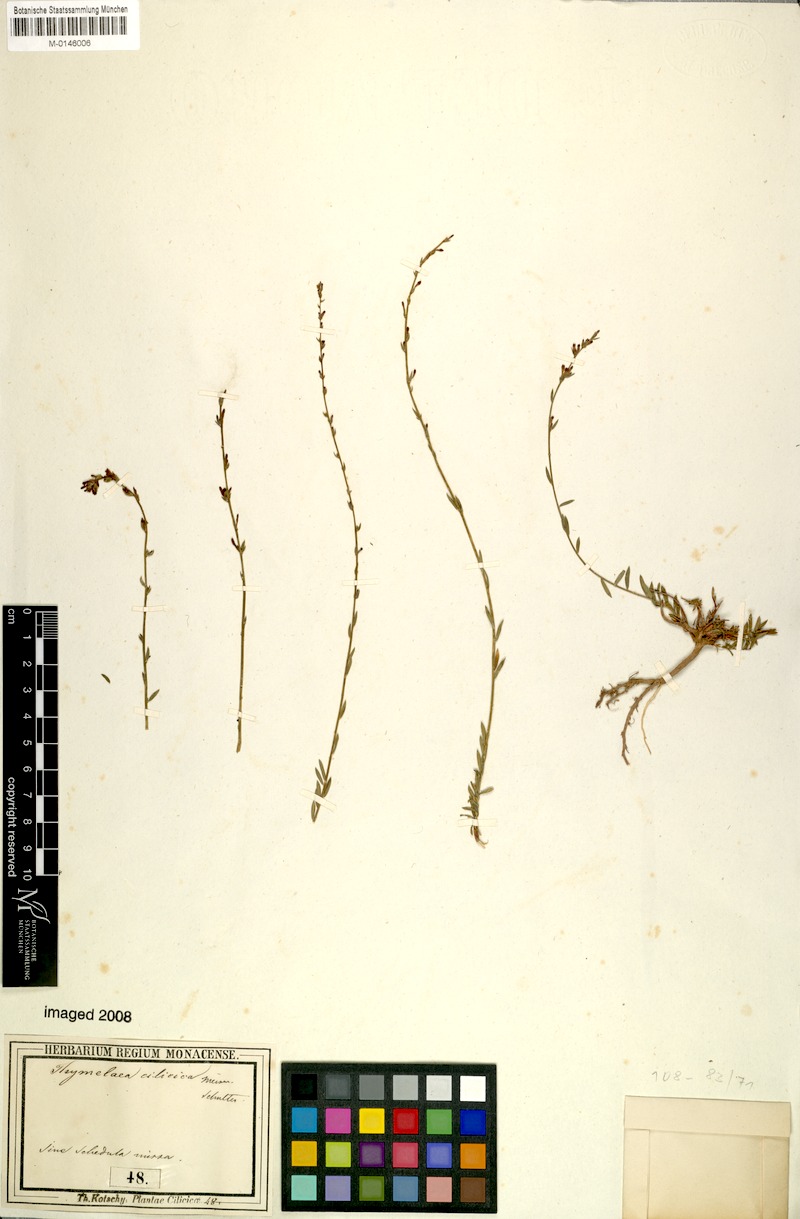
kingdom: Plantae
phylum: Tracheophyta
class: Magnoliopsida
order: Malvales
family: Thymelaeaceae
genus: Thymelaea
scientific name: Thymelaea cilicica
